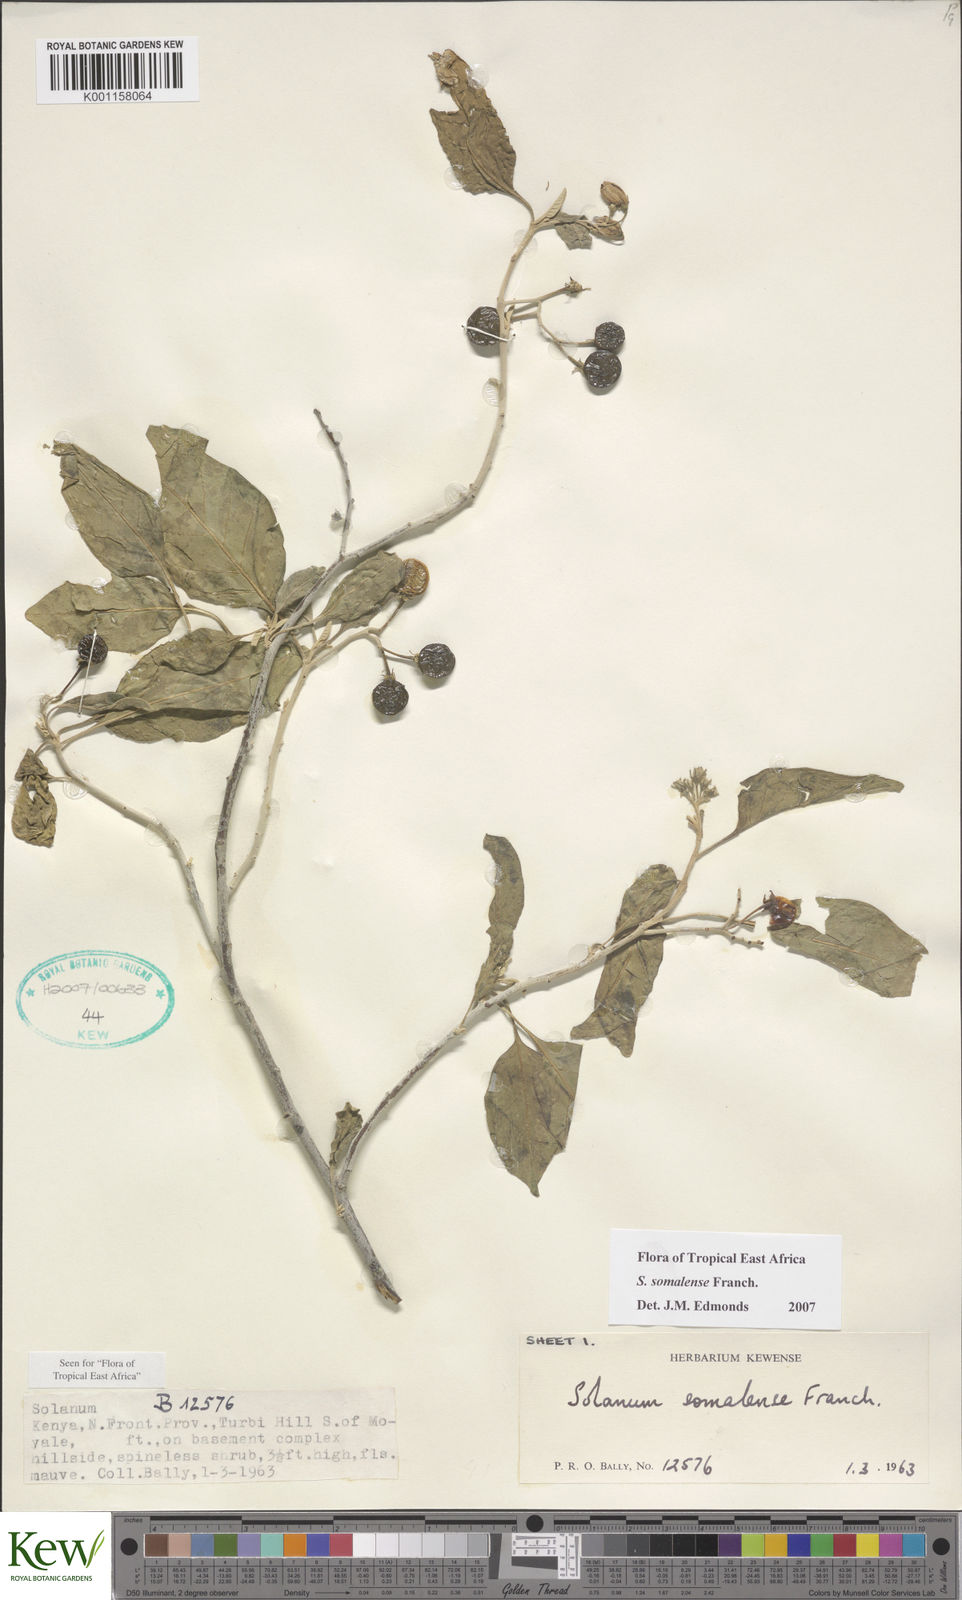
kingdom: Plantae
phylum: Tracheophyta
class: Magnoliopsida
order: Solanales
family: Solanaceae
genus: Solanum
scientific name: Solanum somalense
